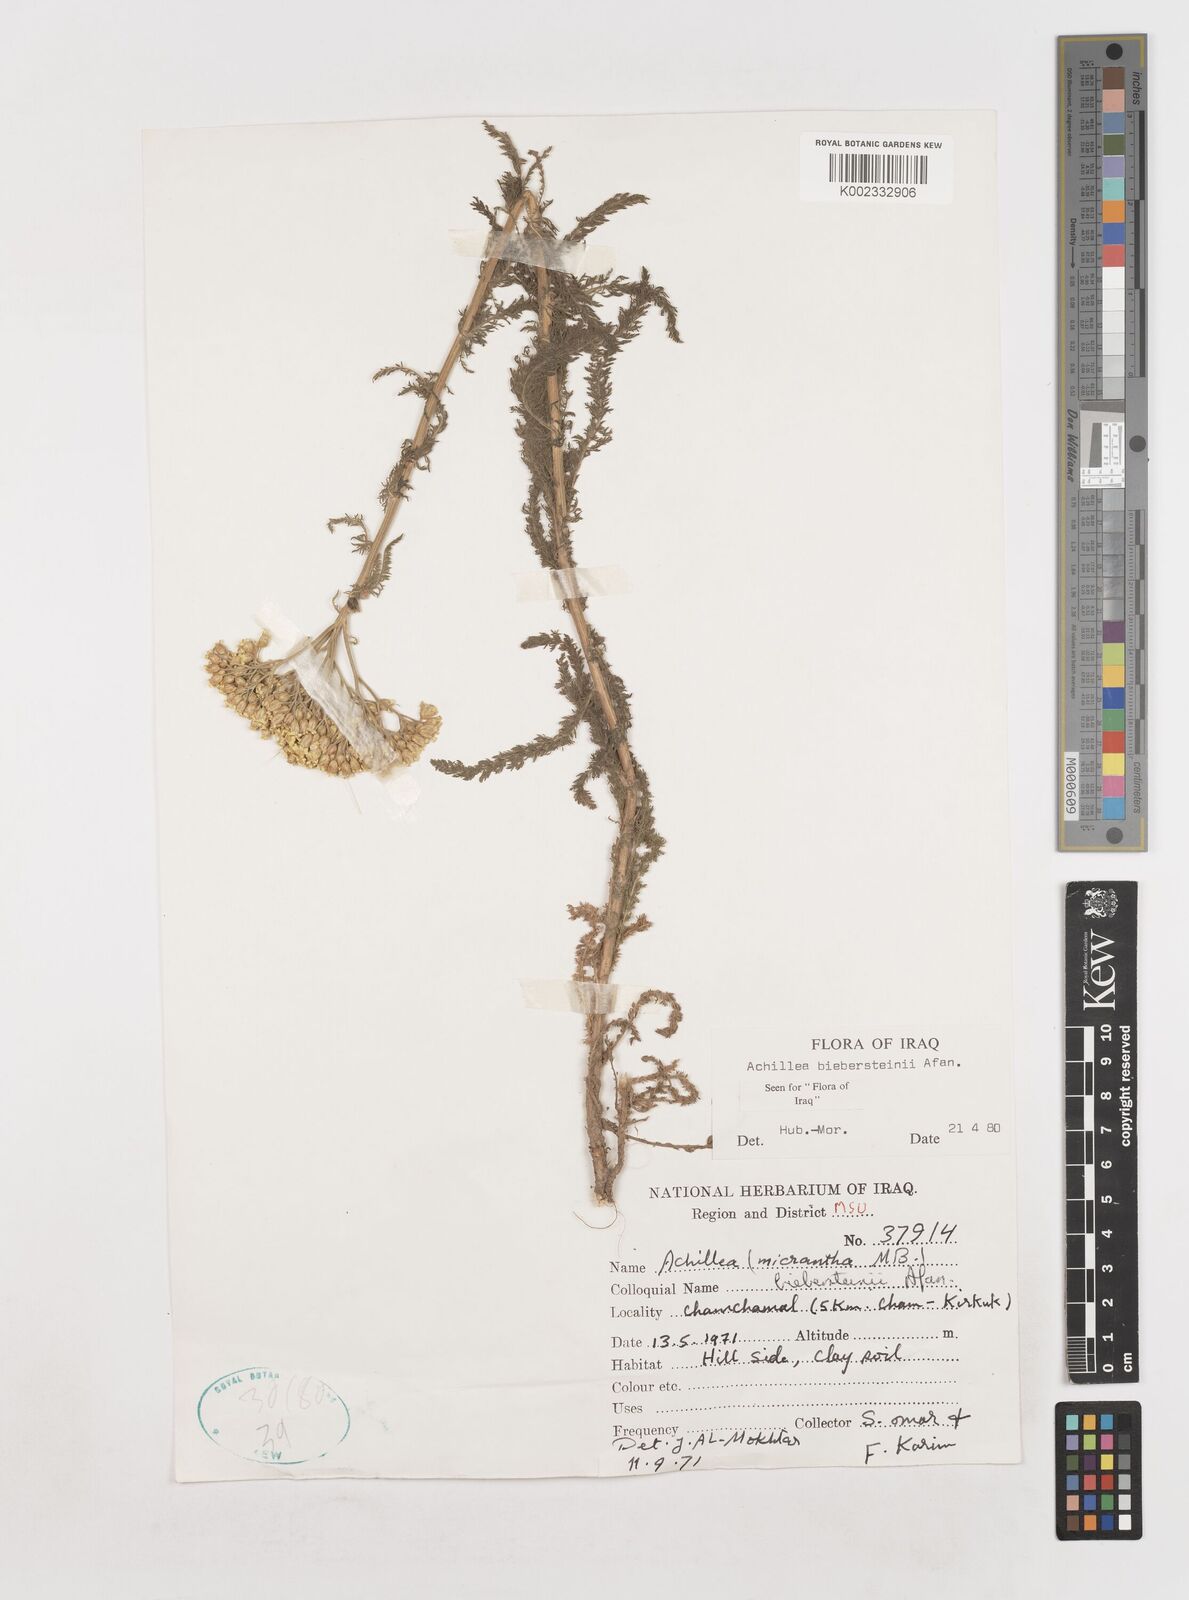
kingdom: Plantae
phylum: Tracheophyta
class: Magnoliopsida
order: Asterales
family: Asteraceae
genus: Achillea
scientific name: Achillea arabica
